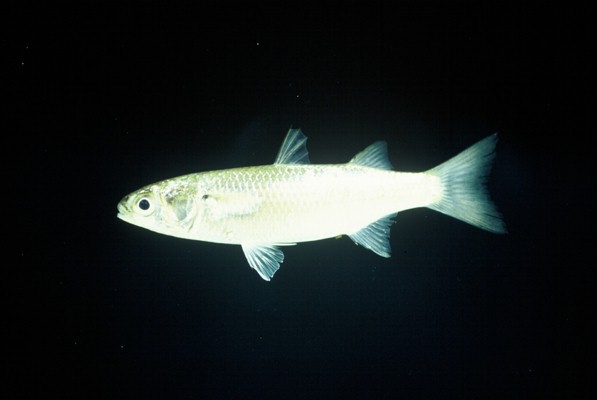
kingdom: Animalia
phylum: Chordata
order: Mugiliformes
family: Mugilidae
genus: Osteomugil
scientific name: Osteomugil robustus
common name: Robust mullet
